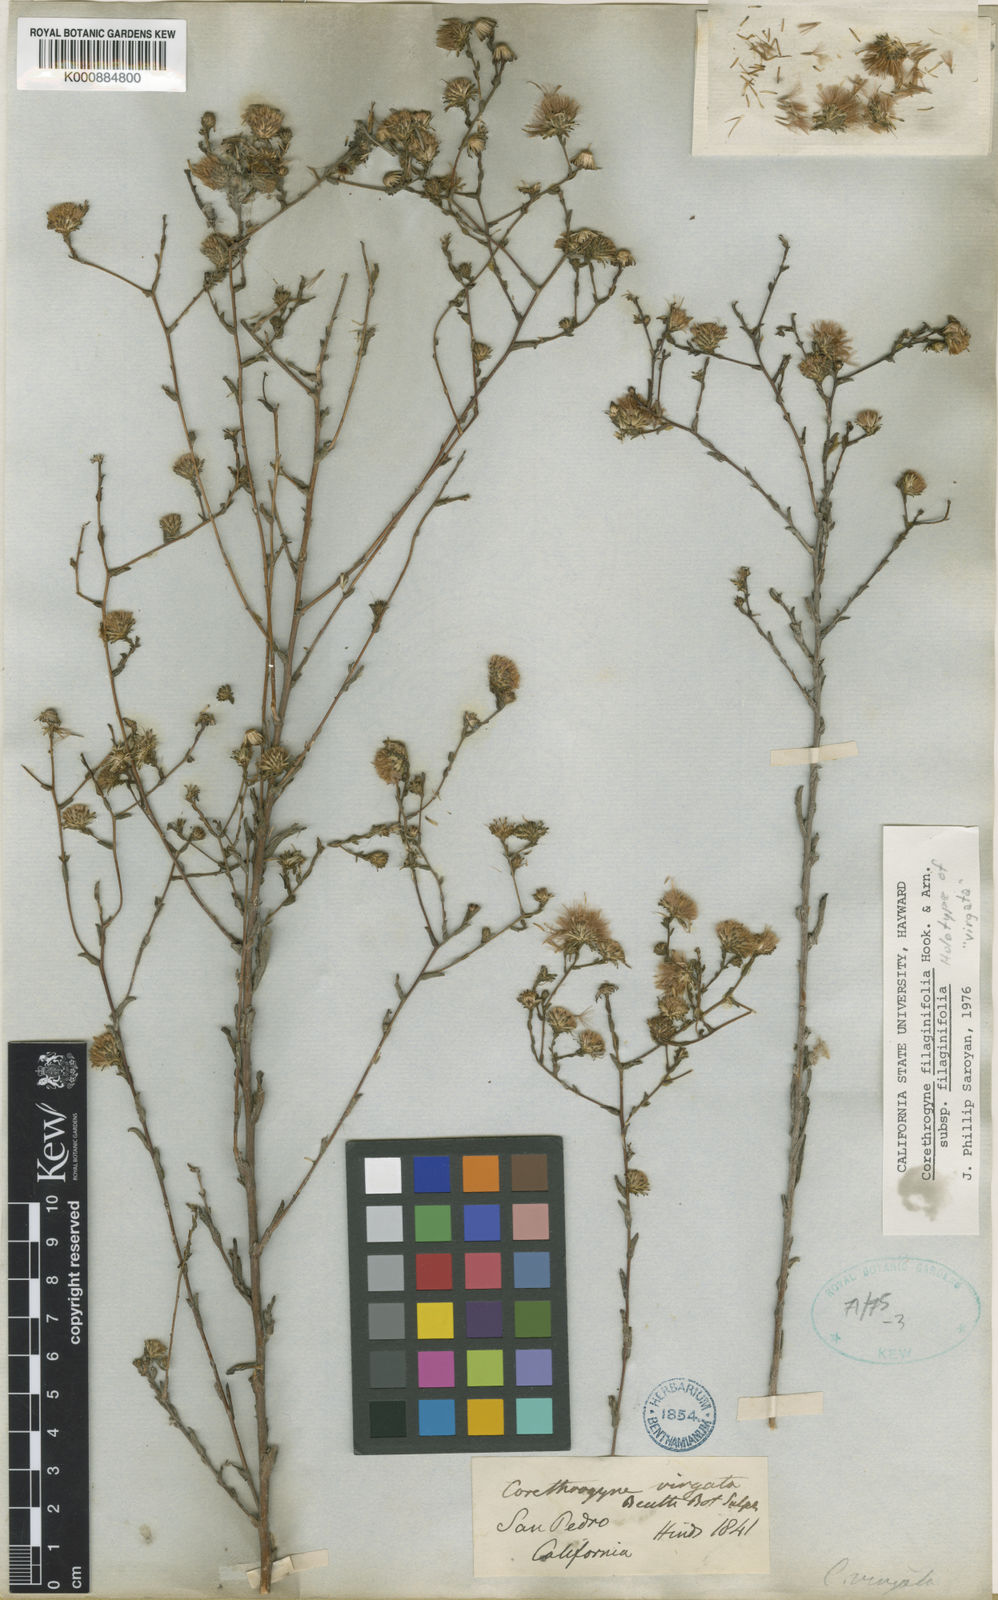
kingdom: Plantae
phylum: Tracheophyta
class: Magnoliopsida
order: Asterales
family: Asteraceae
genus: Corethrogyne
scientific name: Corethrogyne filaginifolia
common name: Sand-aster
